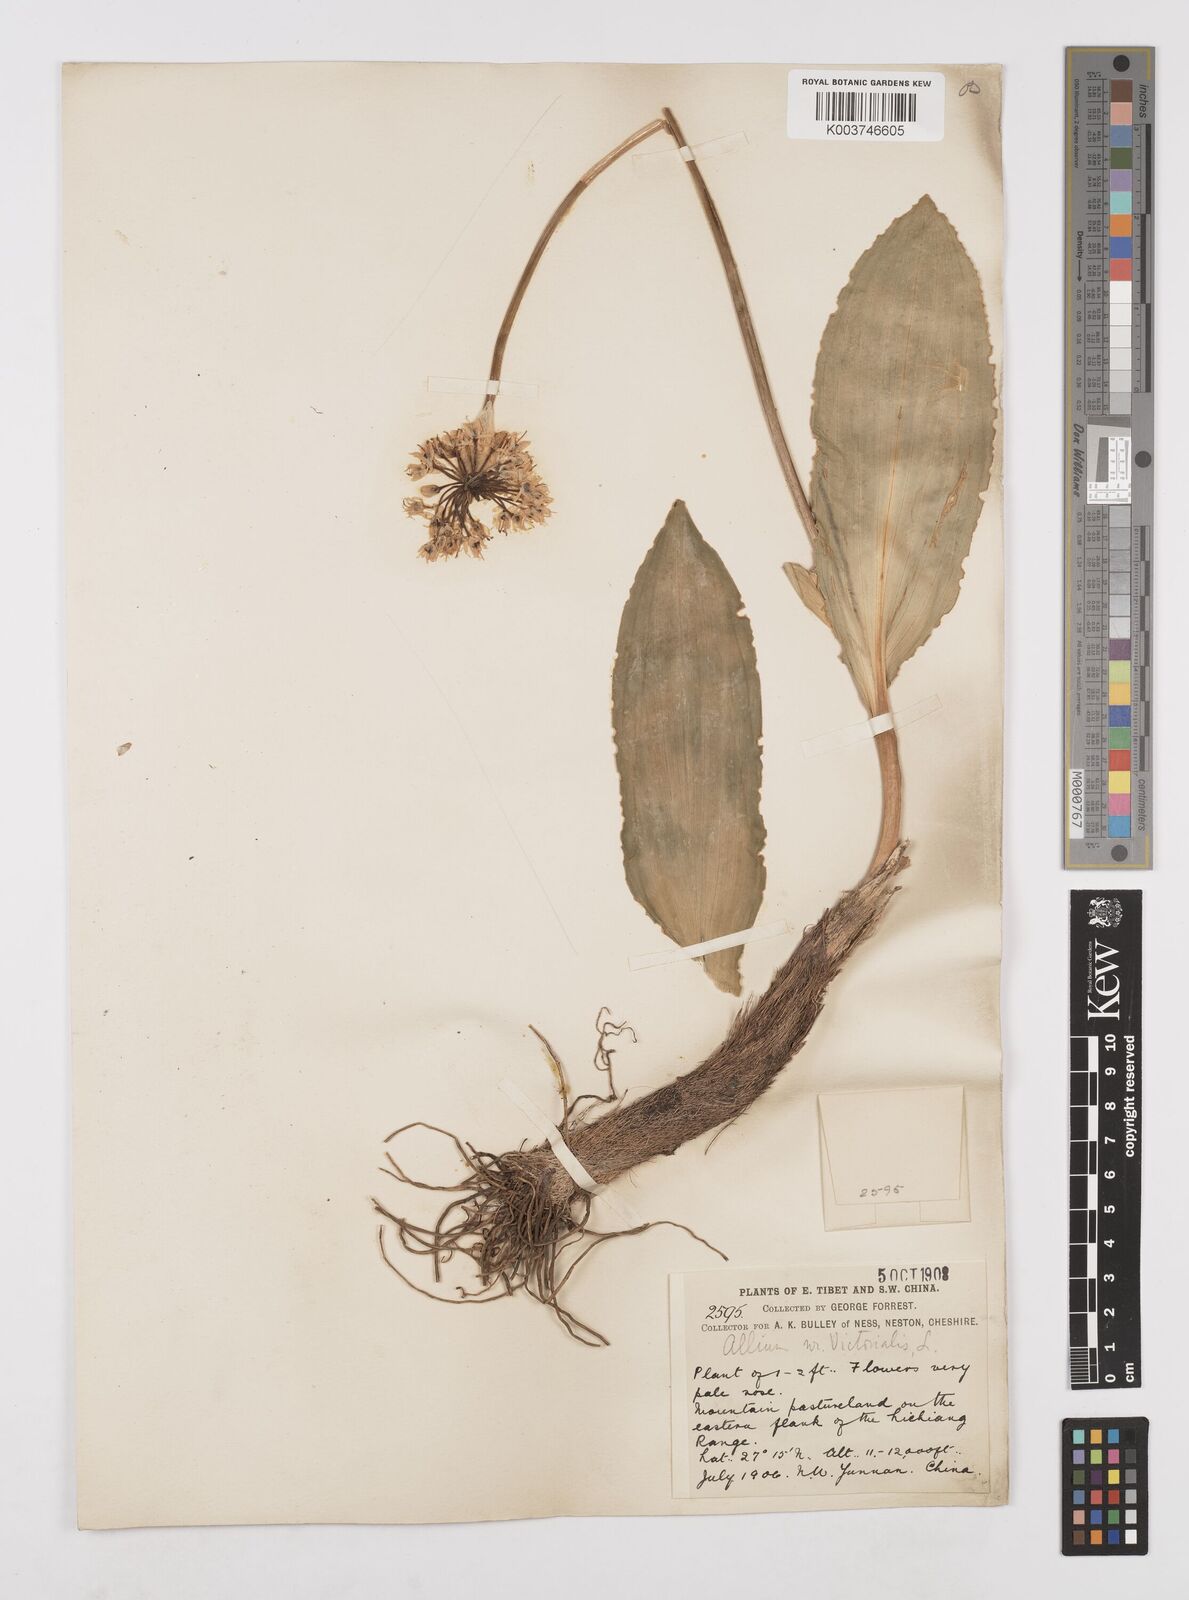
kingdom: Plantae
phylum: Tracheophyta
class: Liliopsida
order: Asparagales
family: Amaryllidaceae
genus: Allium
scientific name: Allium victorialis
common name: Alpine leek
